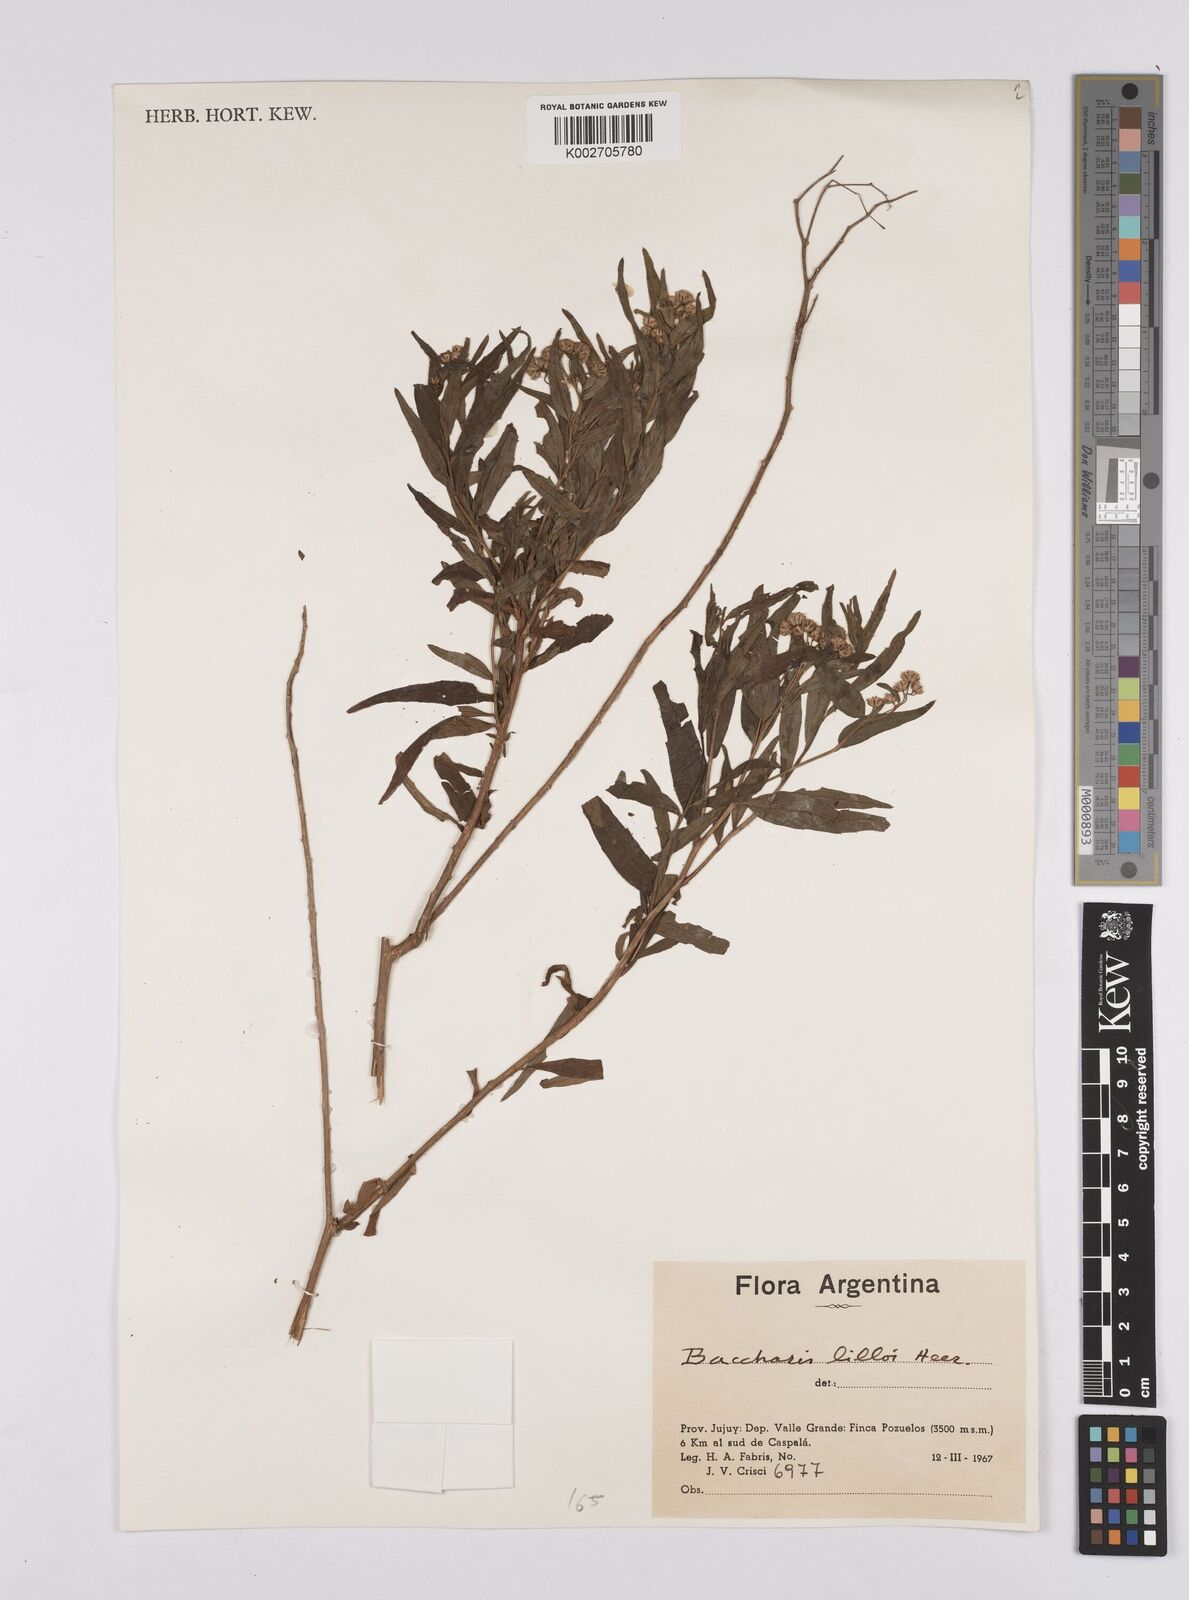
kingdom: Plantae
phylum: Tracheophyta
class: Magnoliopsida
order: Asterales
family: Asteraceae
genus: Baccharis
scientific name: Baccharis lilloi
